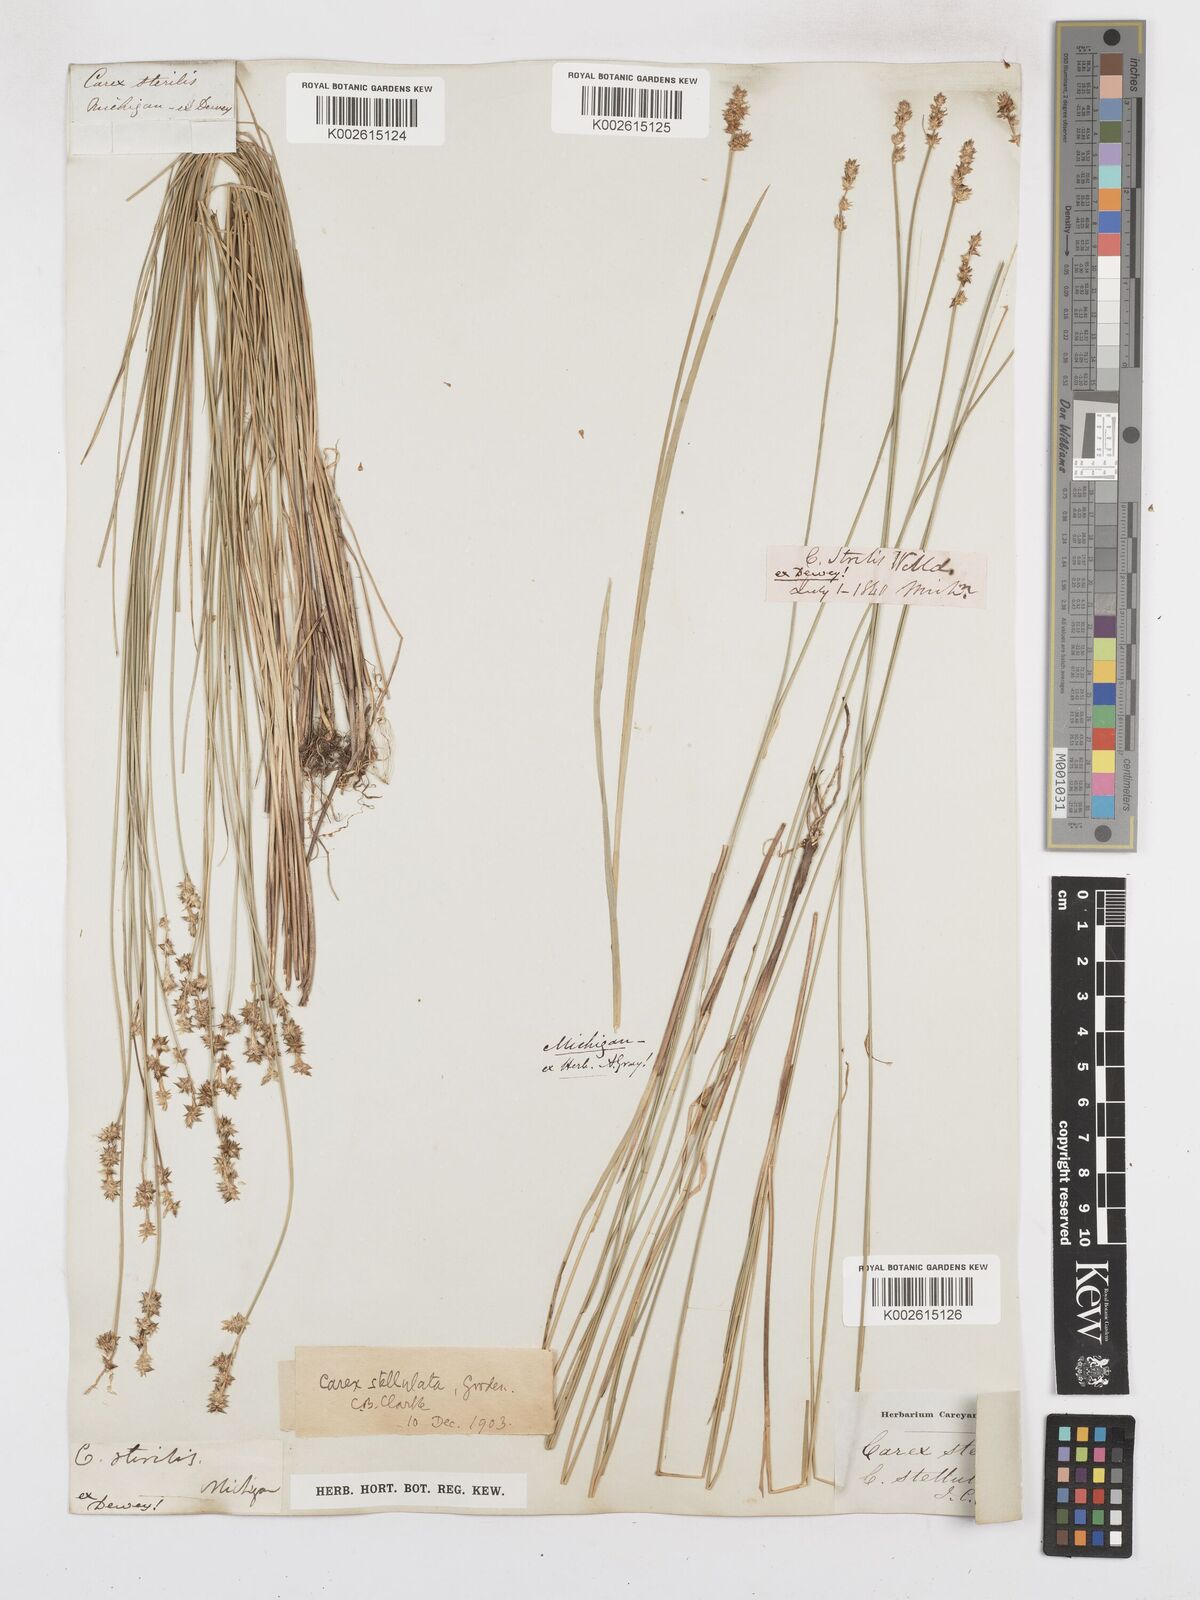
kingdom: Plantae
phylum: Tracheophyta
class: Liliopsida
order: Poales
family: Cyperaceae
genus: Carex
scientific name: Carex echinata
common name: Star sedge
